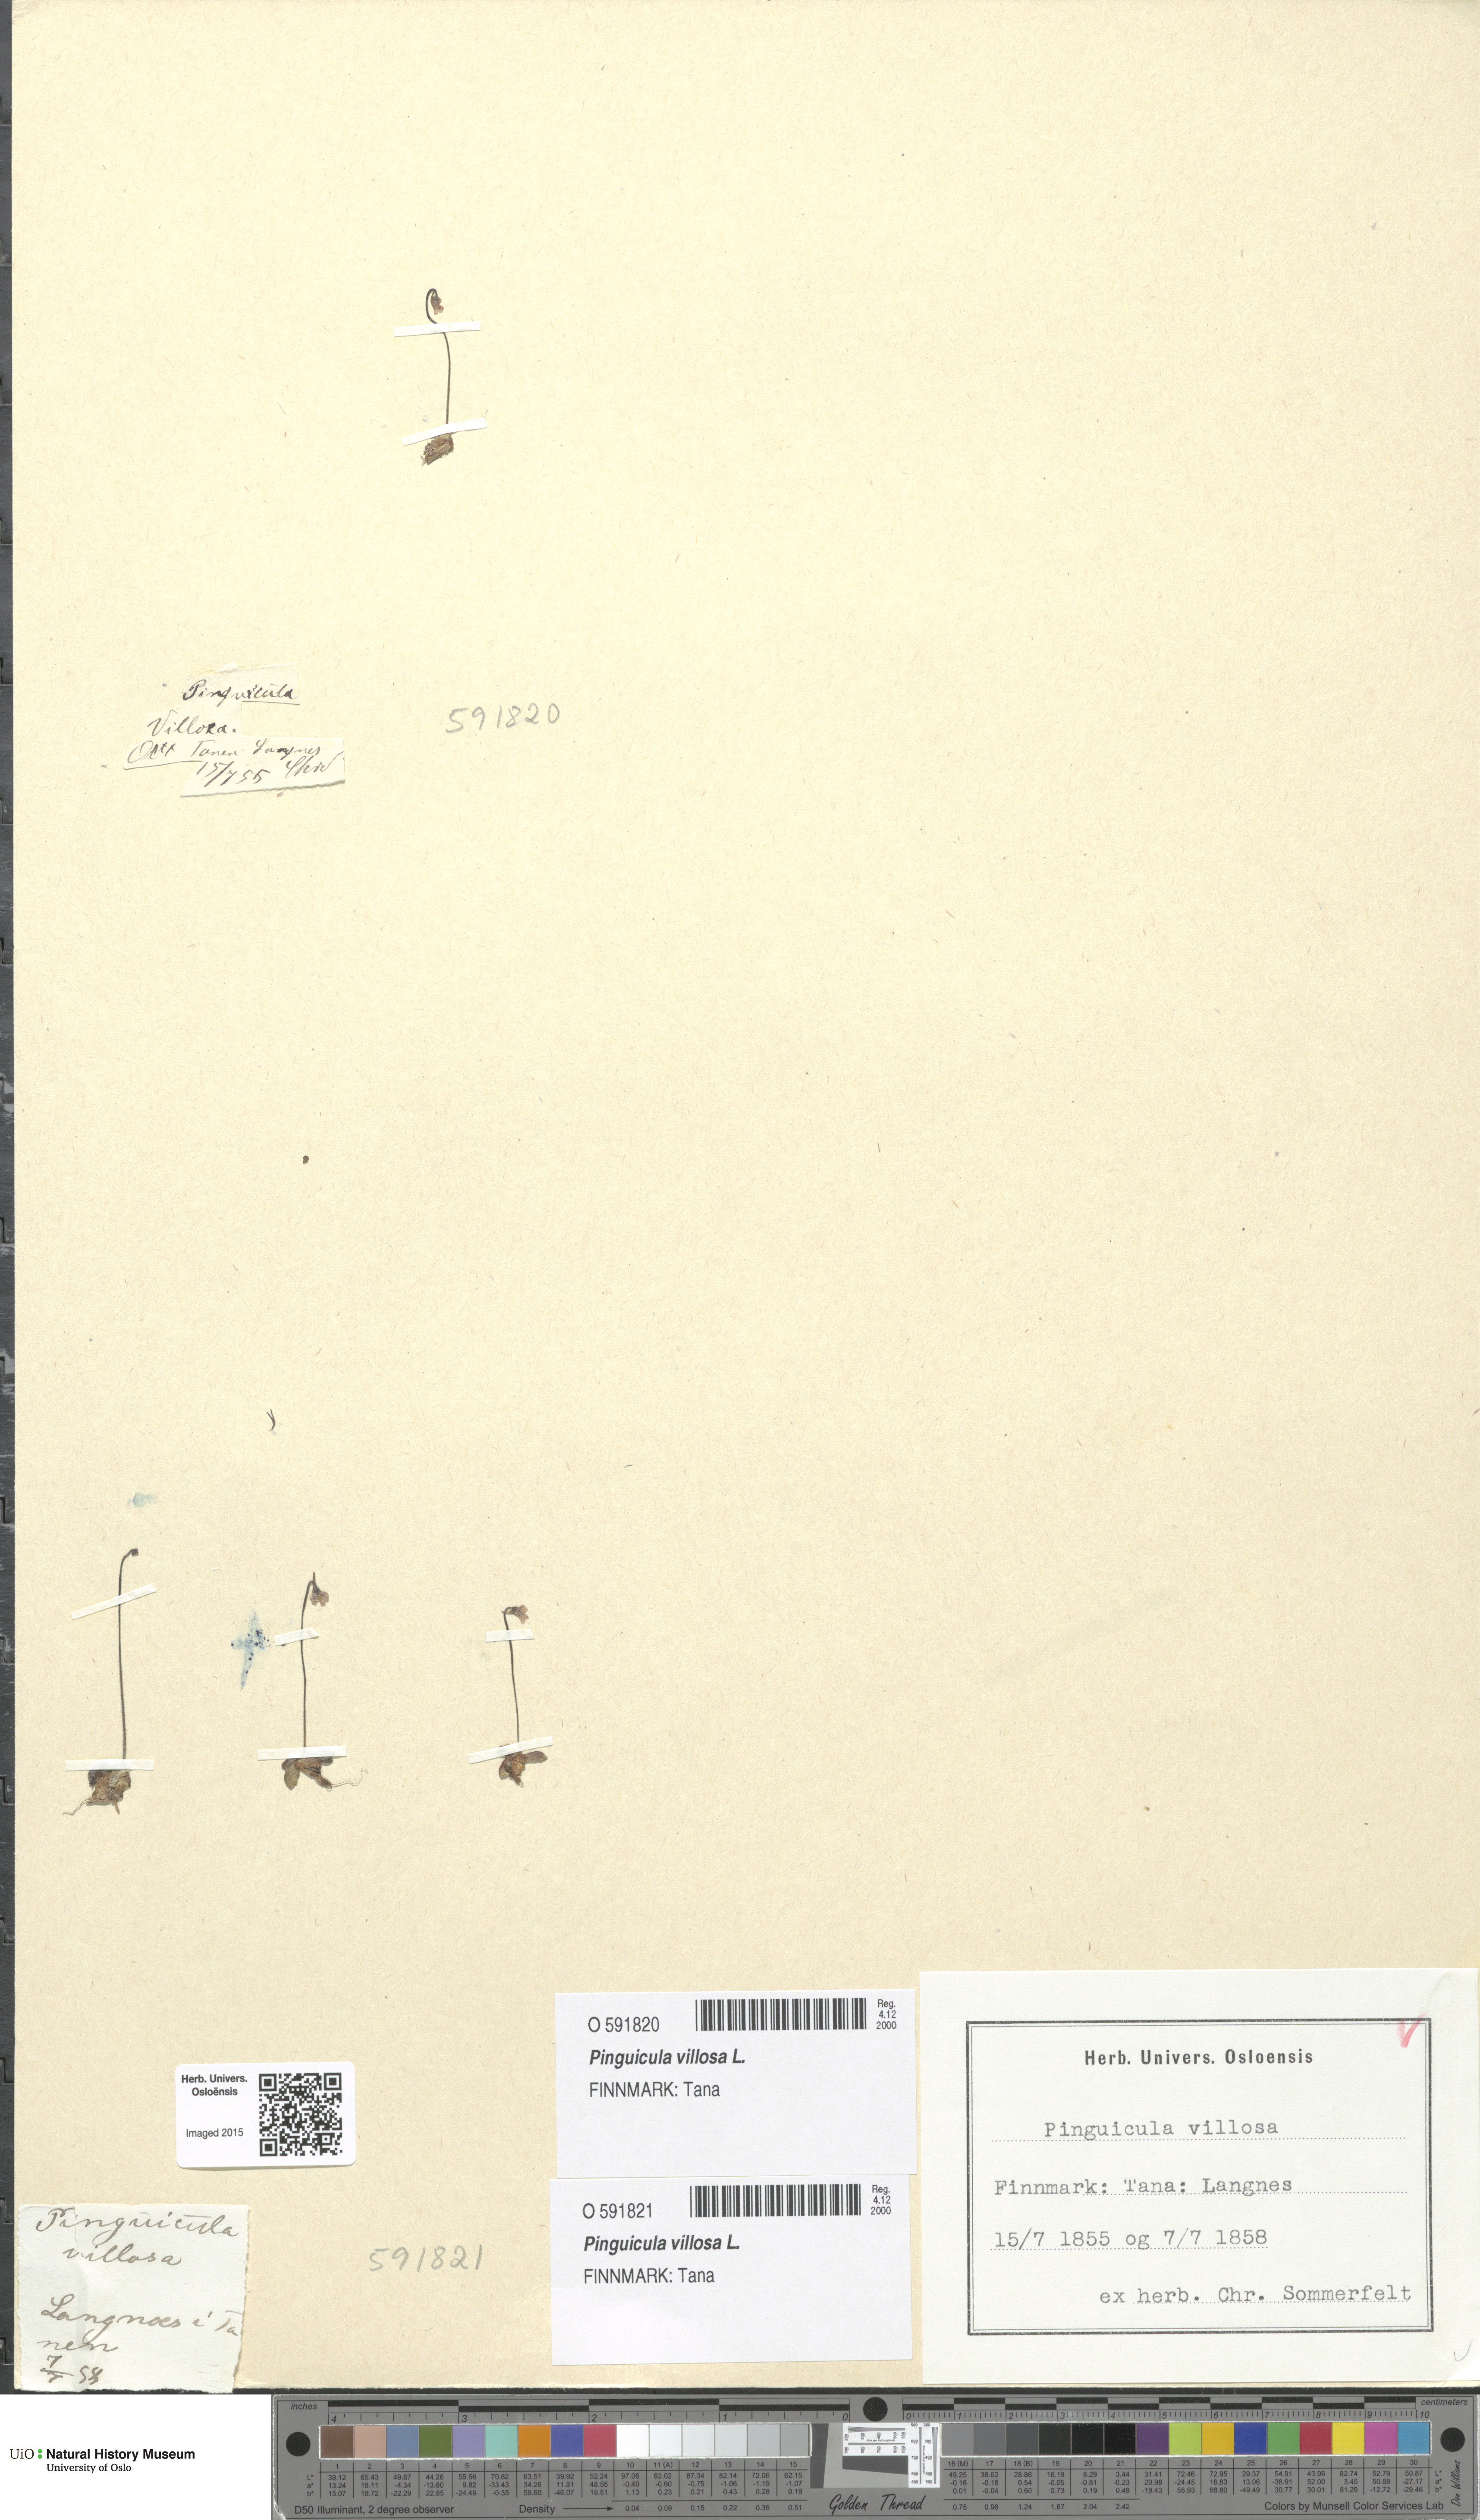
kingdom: Plantae
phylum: Tracheophyta
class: Magnoliopsida
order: Lamiales
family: Lentibulariaceae
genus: Pinguicula
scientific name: Pinguicula villosa
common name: Hairy butterwort
